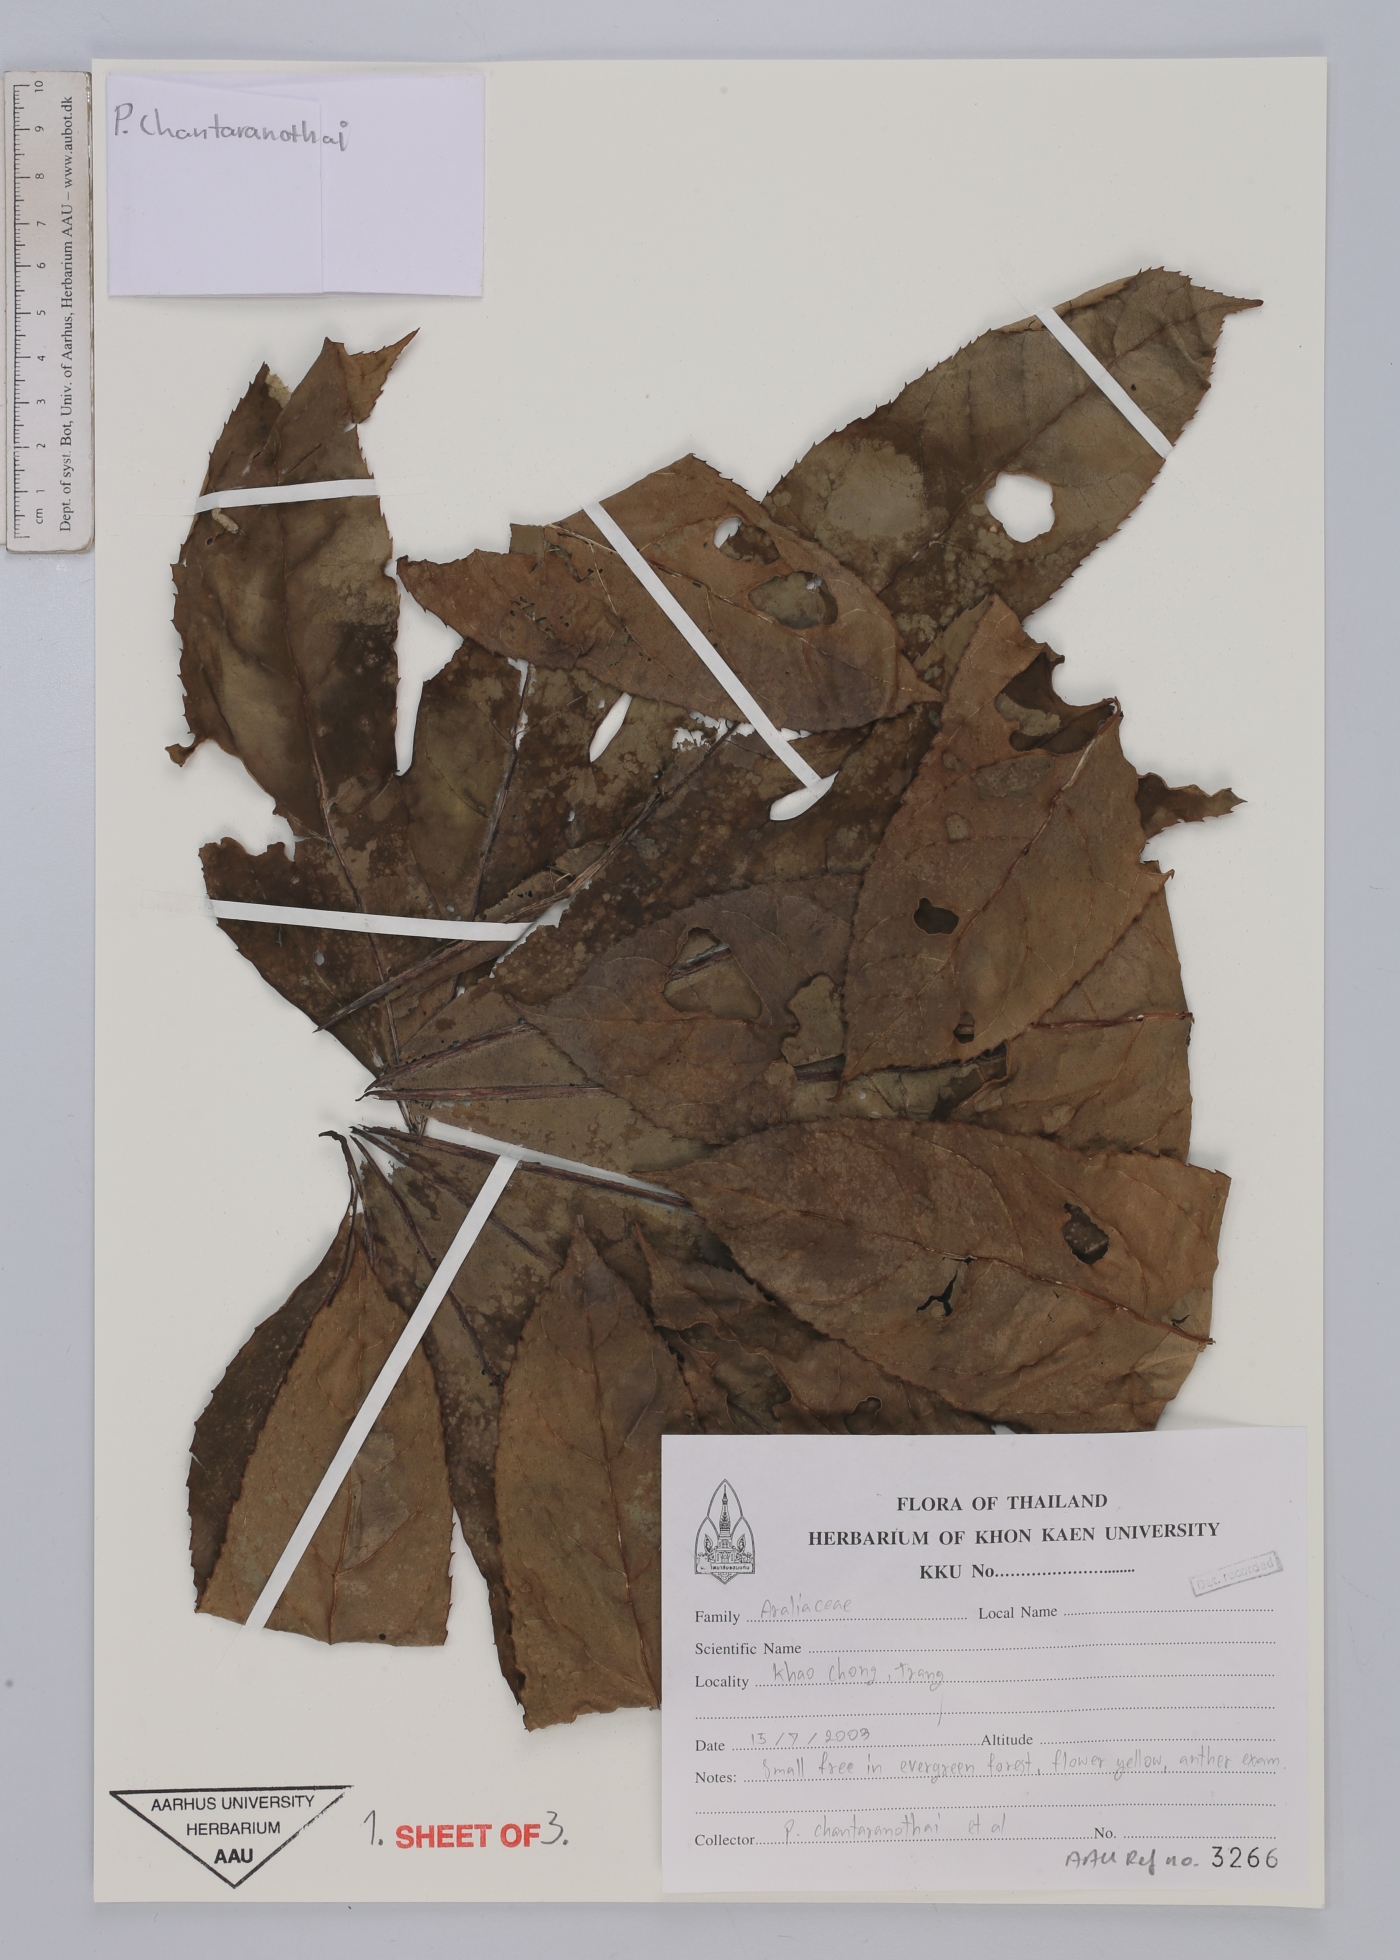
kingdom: Plantae
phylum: Tracheophyta
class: Magnoliopsida
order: Apiales
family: Araliaceae
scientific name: Araliaceae
